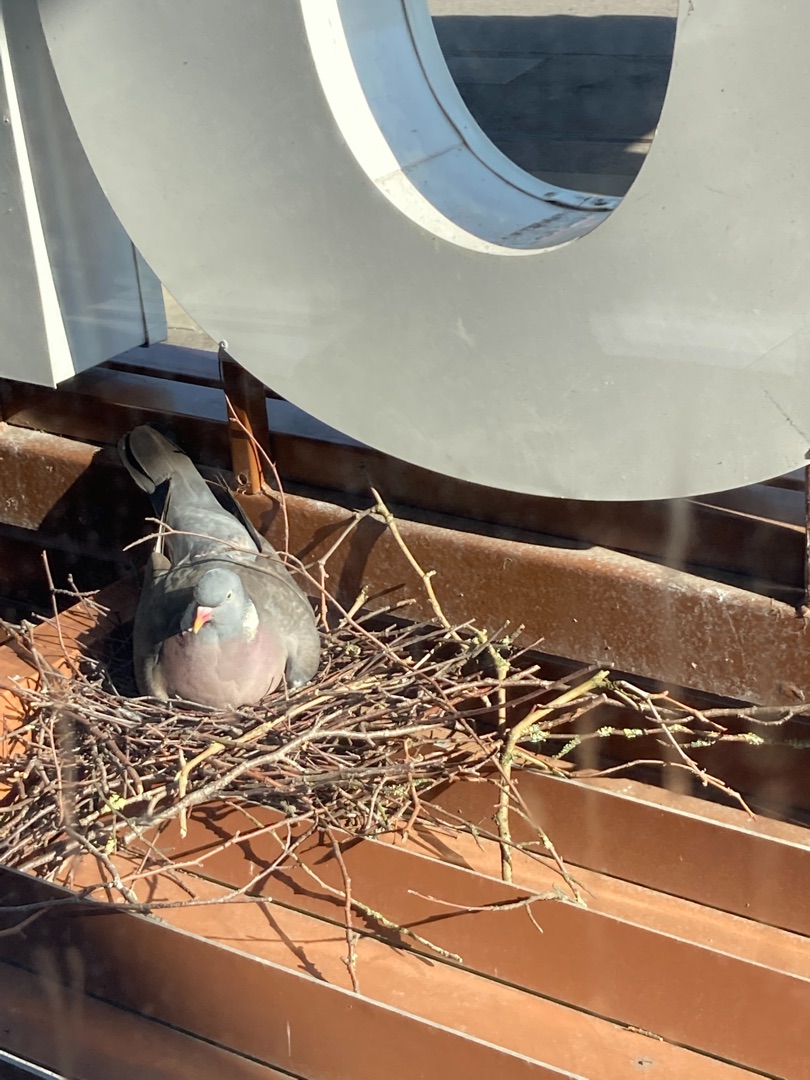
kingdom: Animalia
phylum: Chordata
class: Aves
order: Columbiformes
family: Columbidae
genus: Columba
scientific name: Columba palumbus
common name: Ringdue
